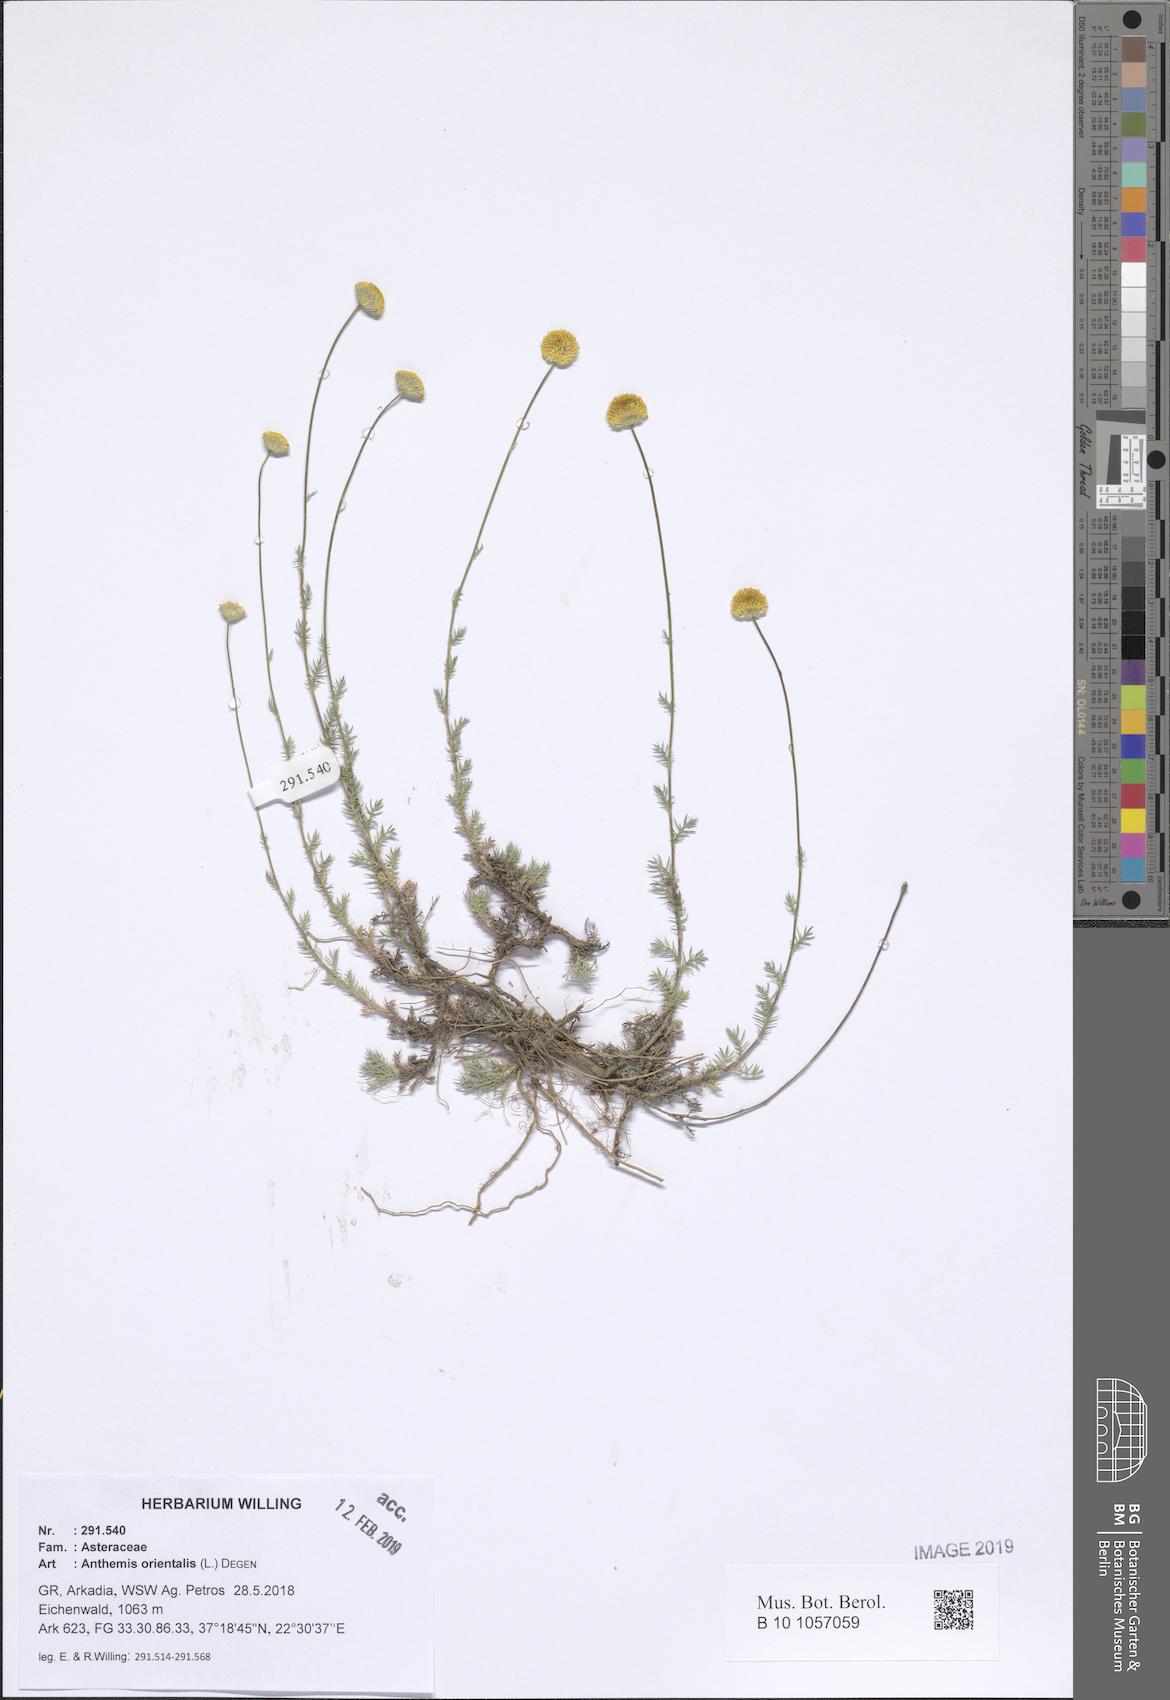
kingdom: Plantae
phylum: Tracheophyta
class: Magnoliopsida
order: Asterales
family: Asteraceae
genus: Anthemis
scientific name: Anthemis orientalis
